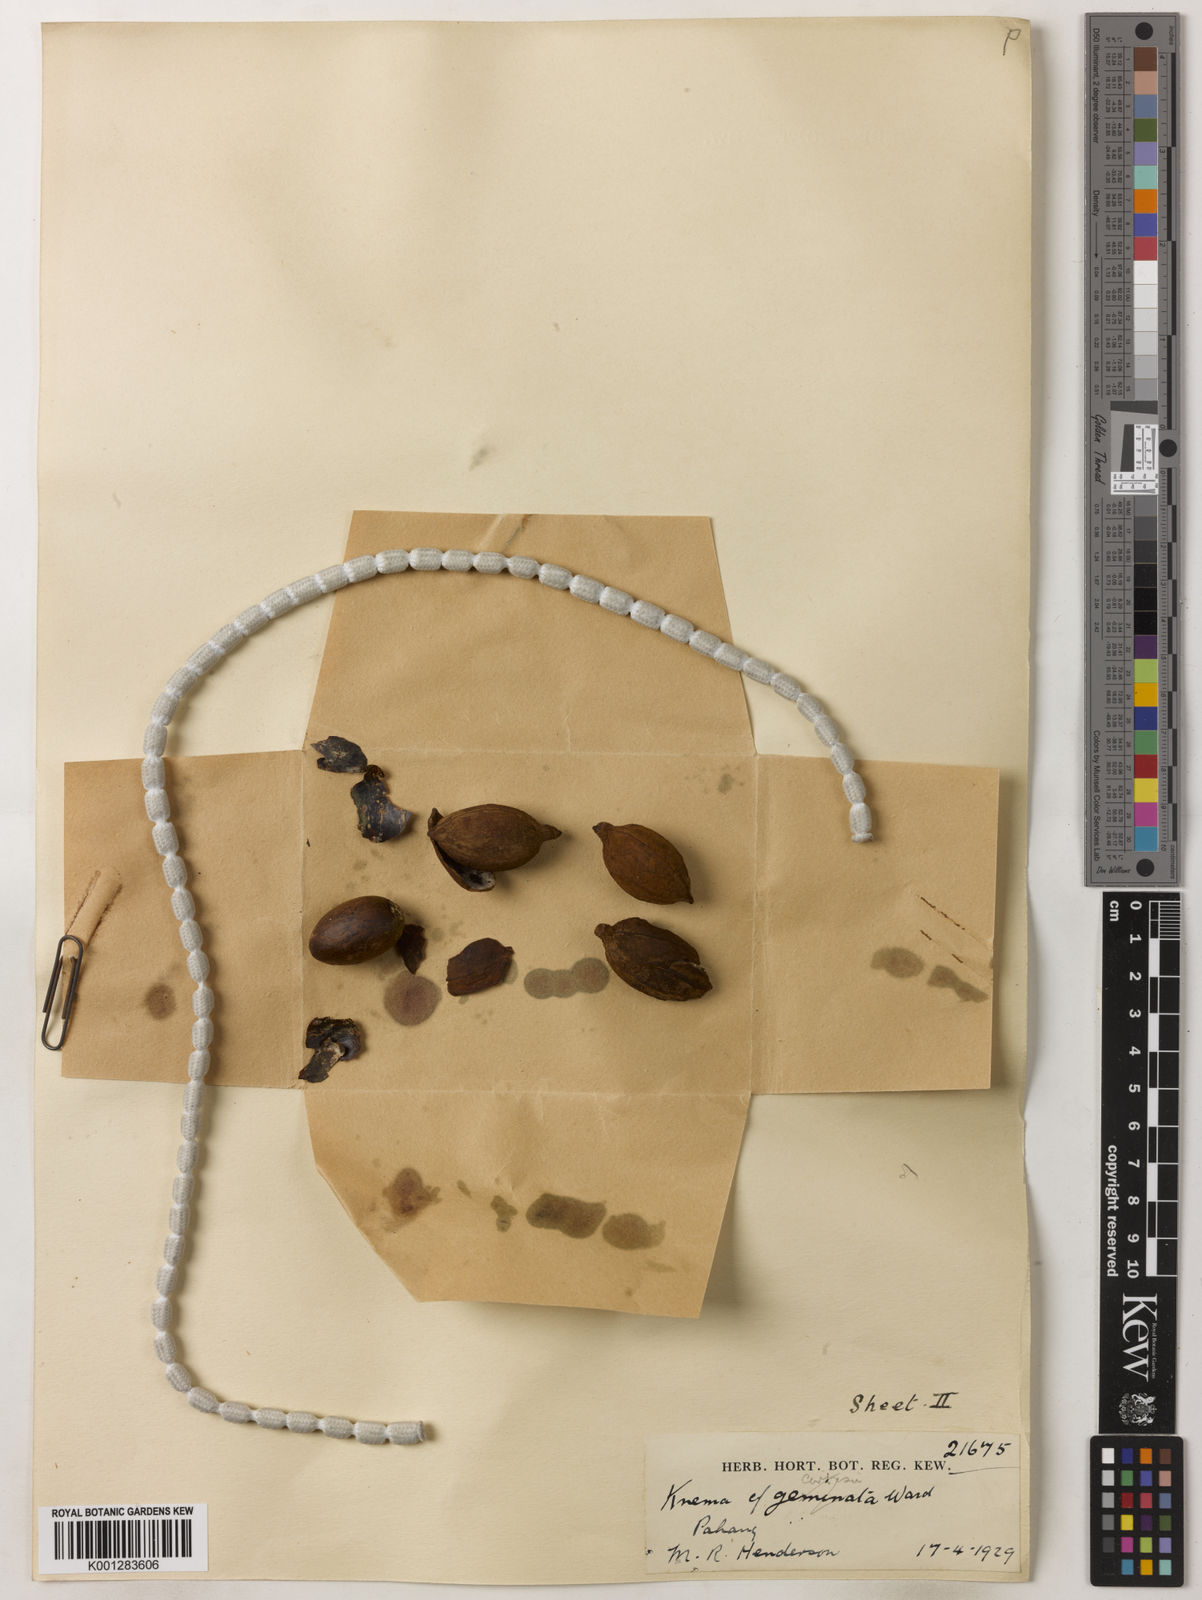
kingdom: Plantae
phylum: Tracheophyta
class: Magnoliopsida
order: Magnoliales
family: Myristicaceae
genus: Knema
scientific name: Knema curtisii
